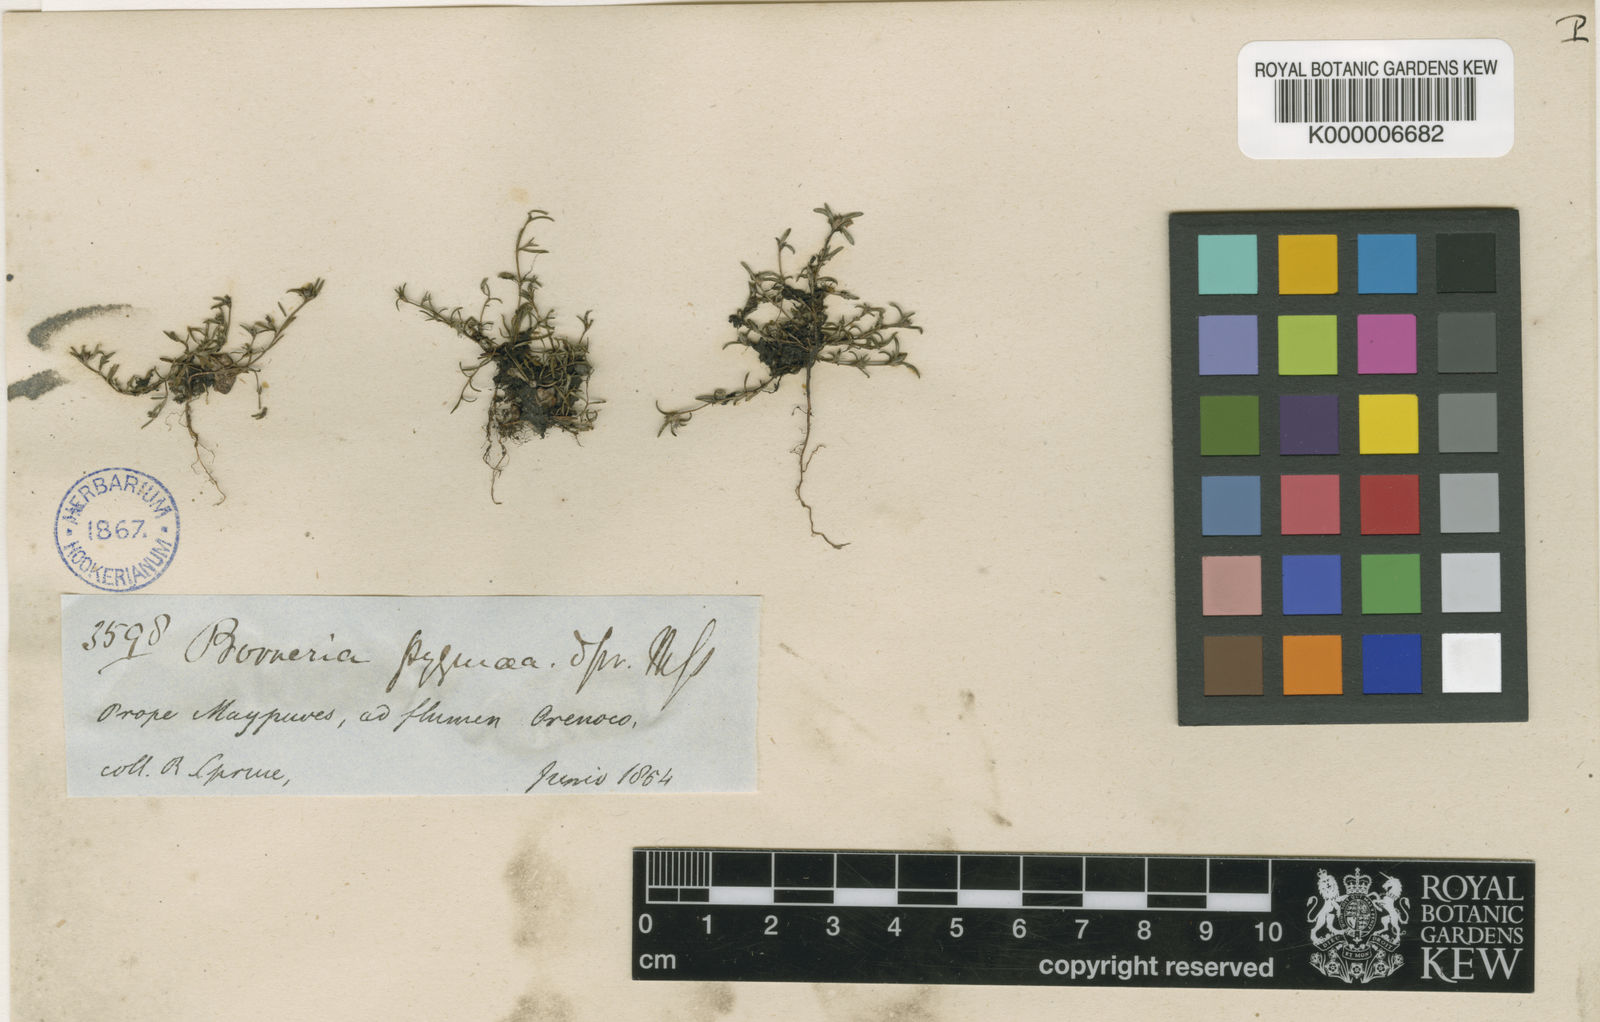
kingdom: Plantae
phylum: Tracheophyta
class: Magnoliopsida
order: Gentianales
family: Rubiaceae
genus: Spermacoce
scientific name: Spermacoce verticillata
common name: Shrubby false buttonweed
